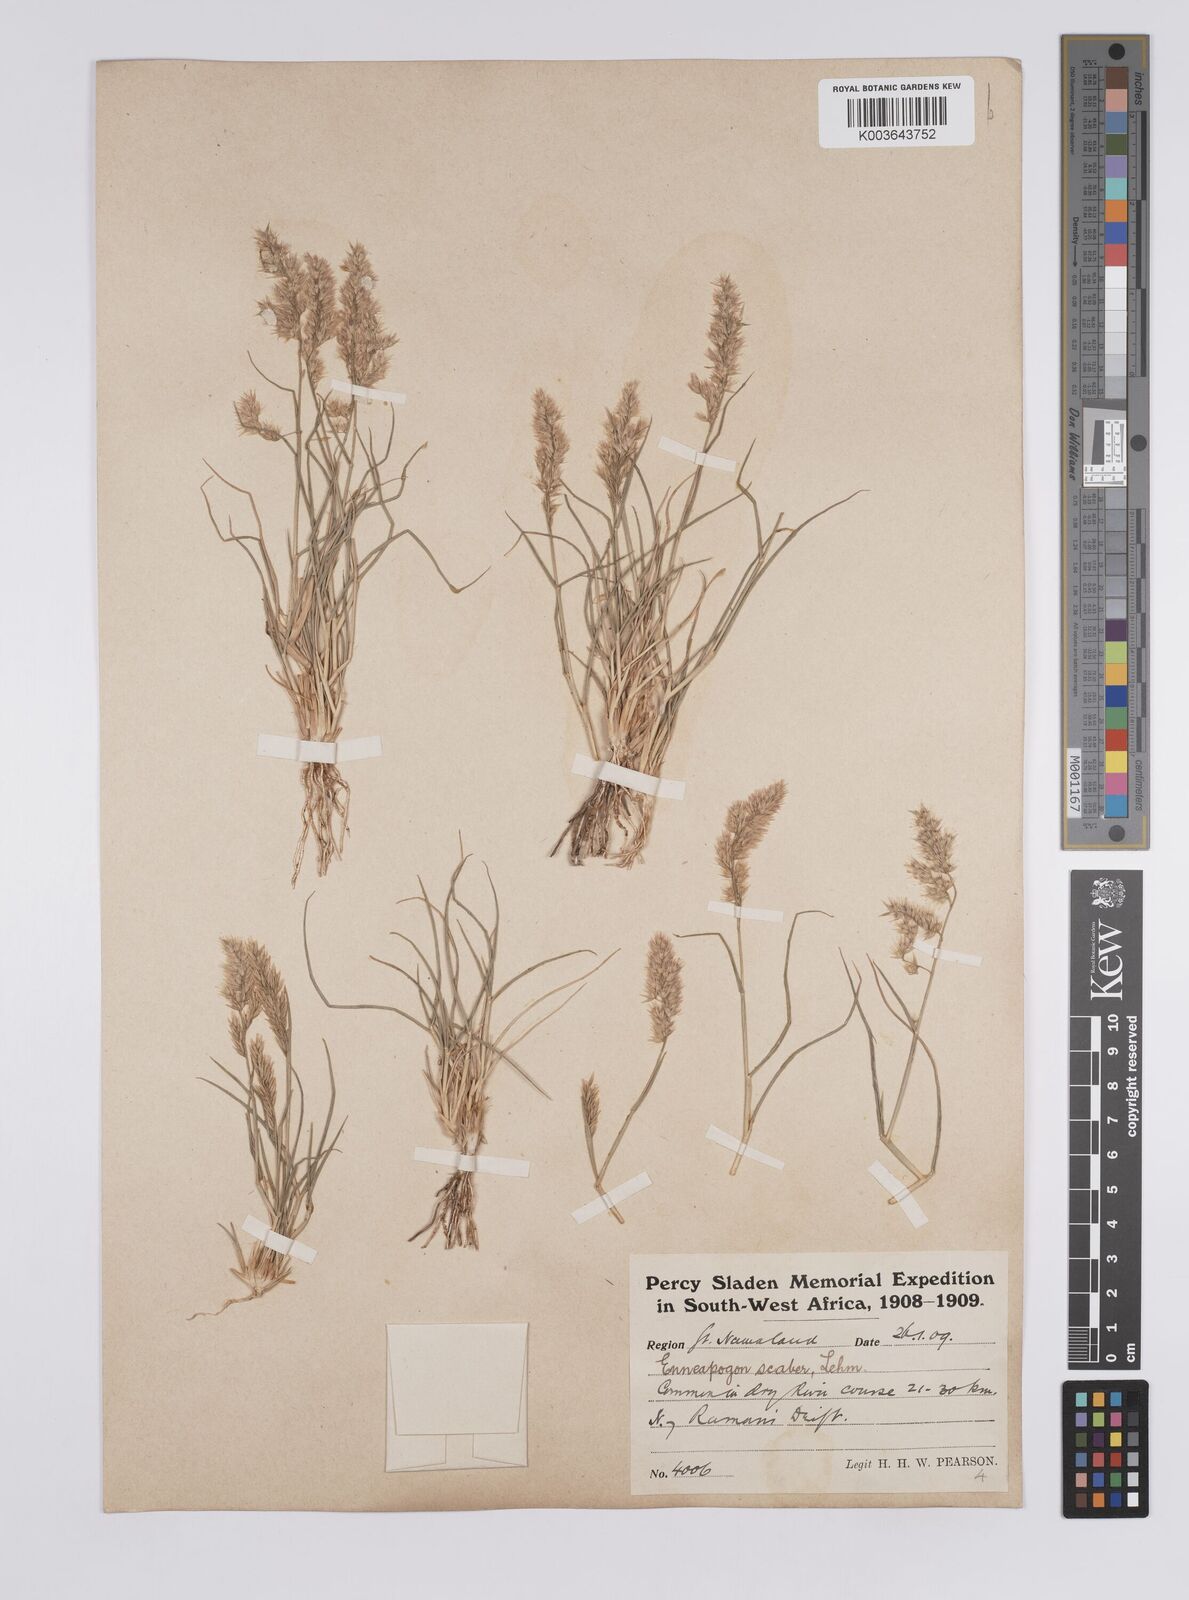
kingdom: Plantae
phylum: Tracheophyta
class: Liliopsida
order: Poales
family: Poaceae
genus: Enneapogon
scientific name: Enneapogon scaber
